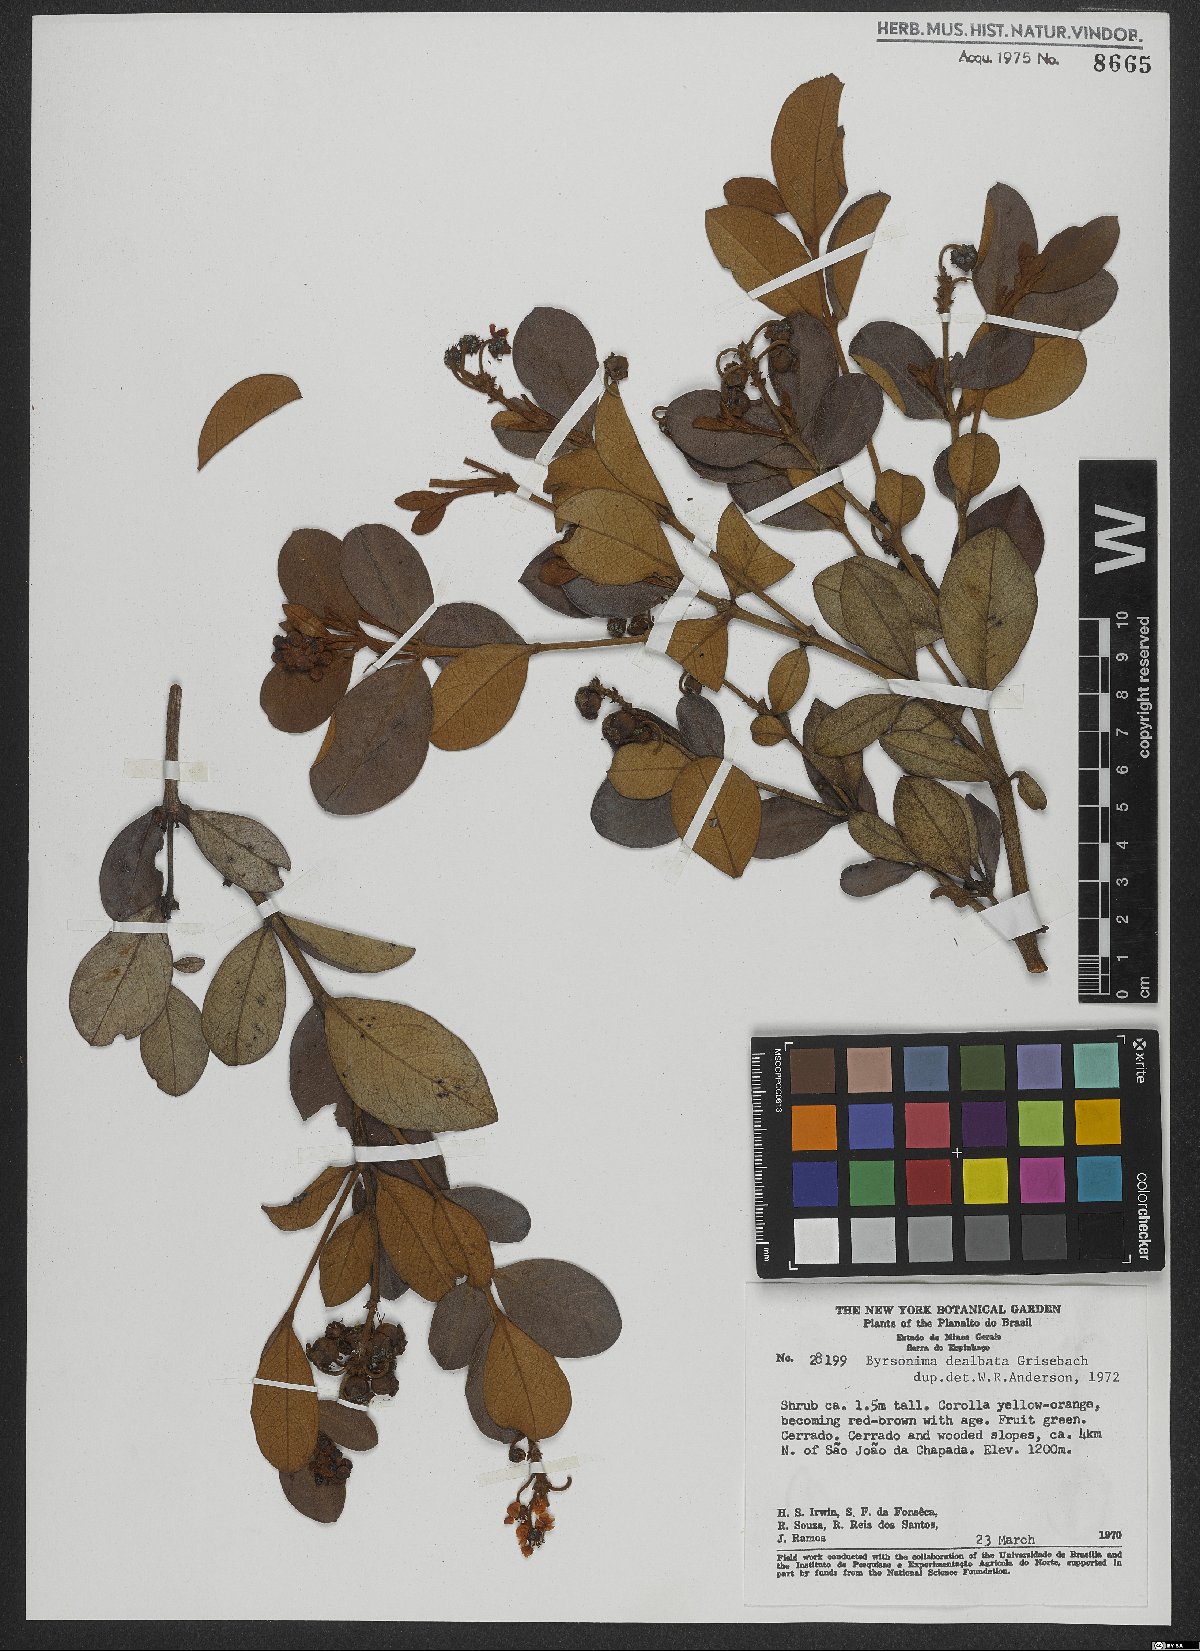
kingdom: Plantae
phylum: Tracheophyta
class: Magnoliopsida
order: Malpighiales
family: Malpighiaceae
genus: Byrsonima
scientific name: Byrsonima dealbata
